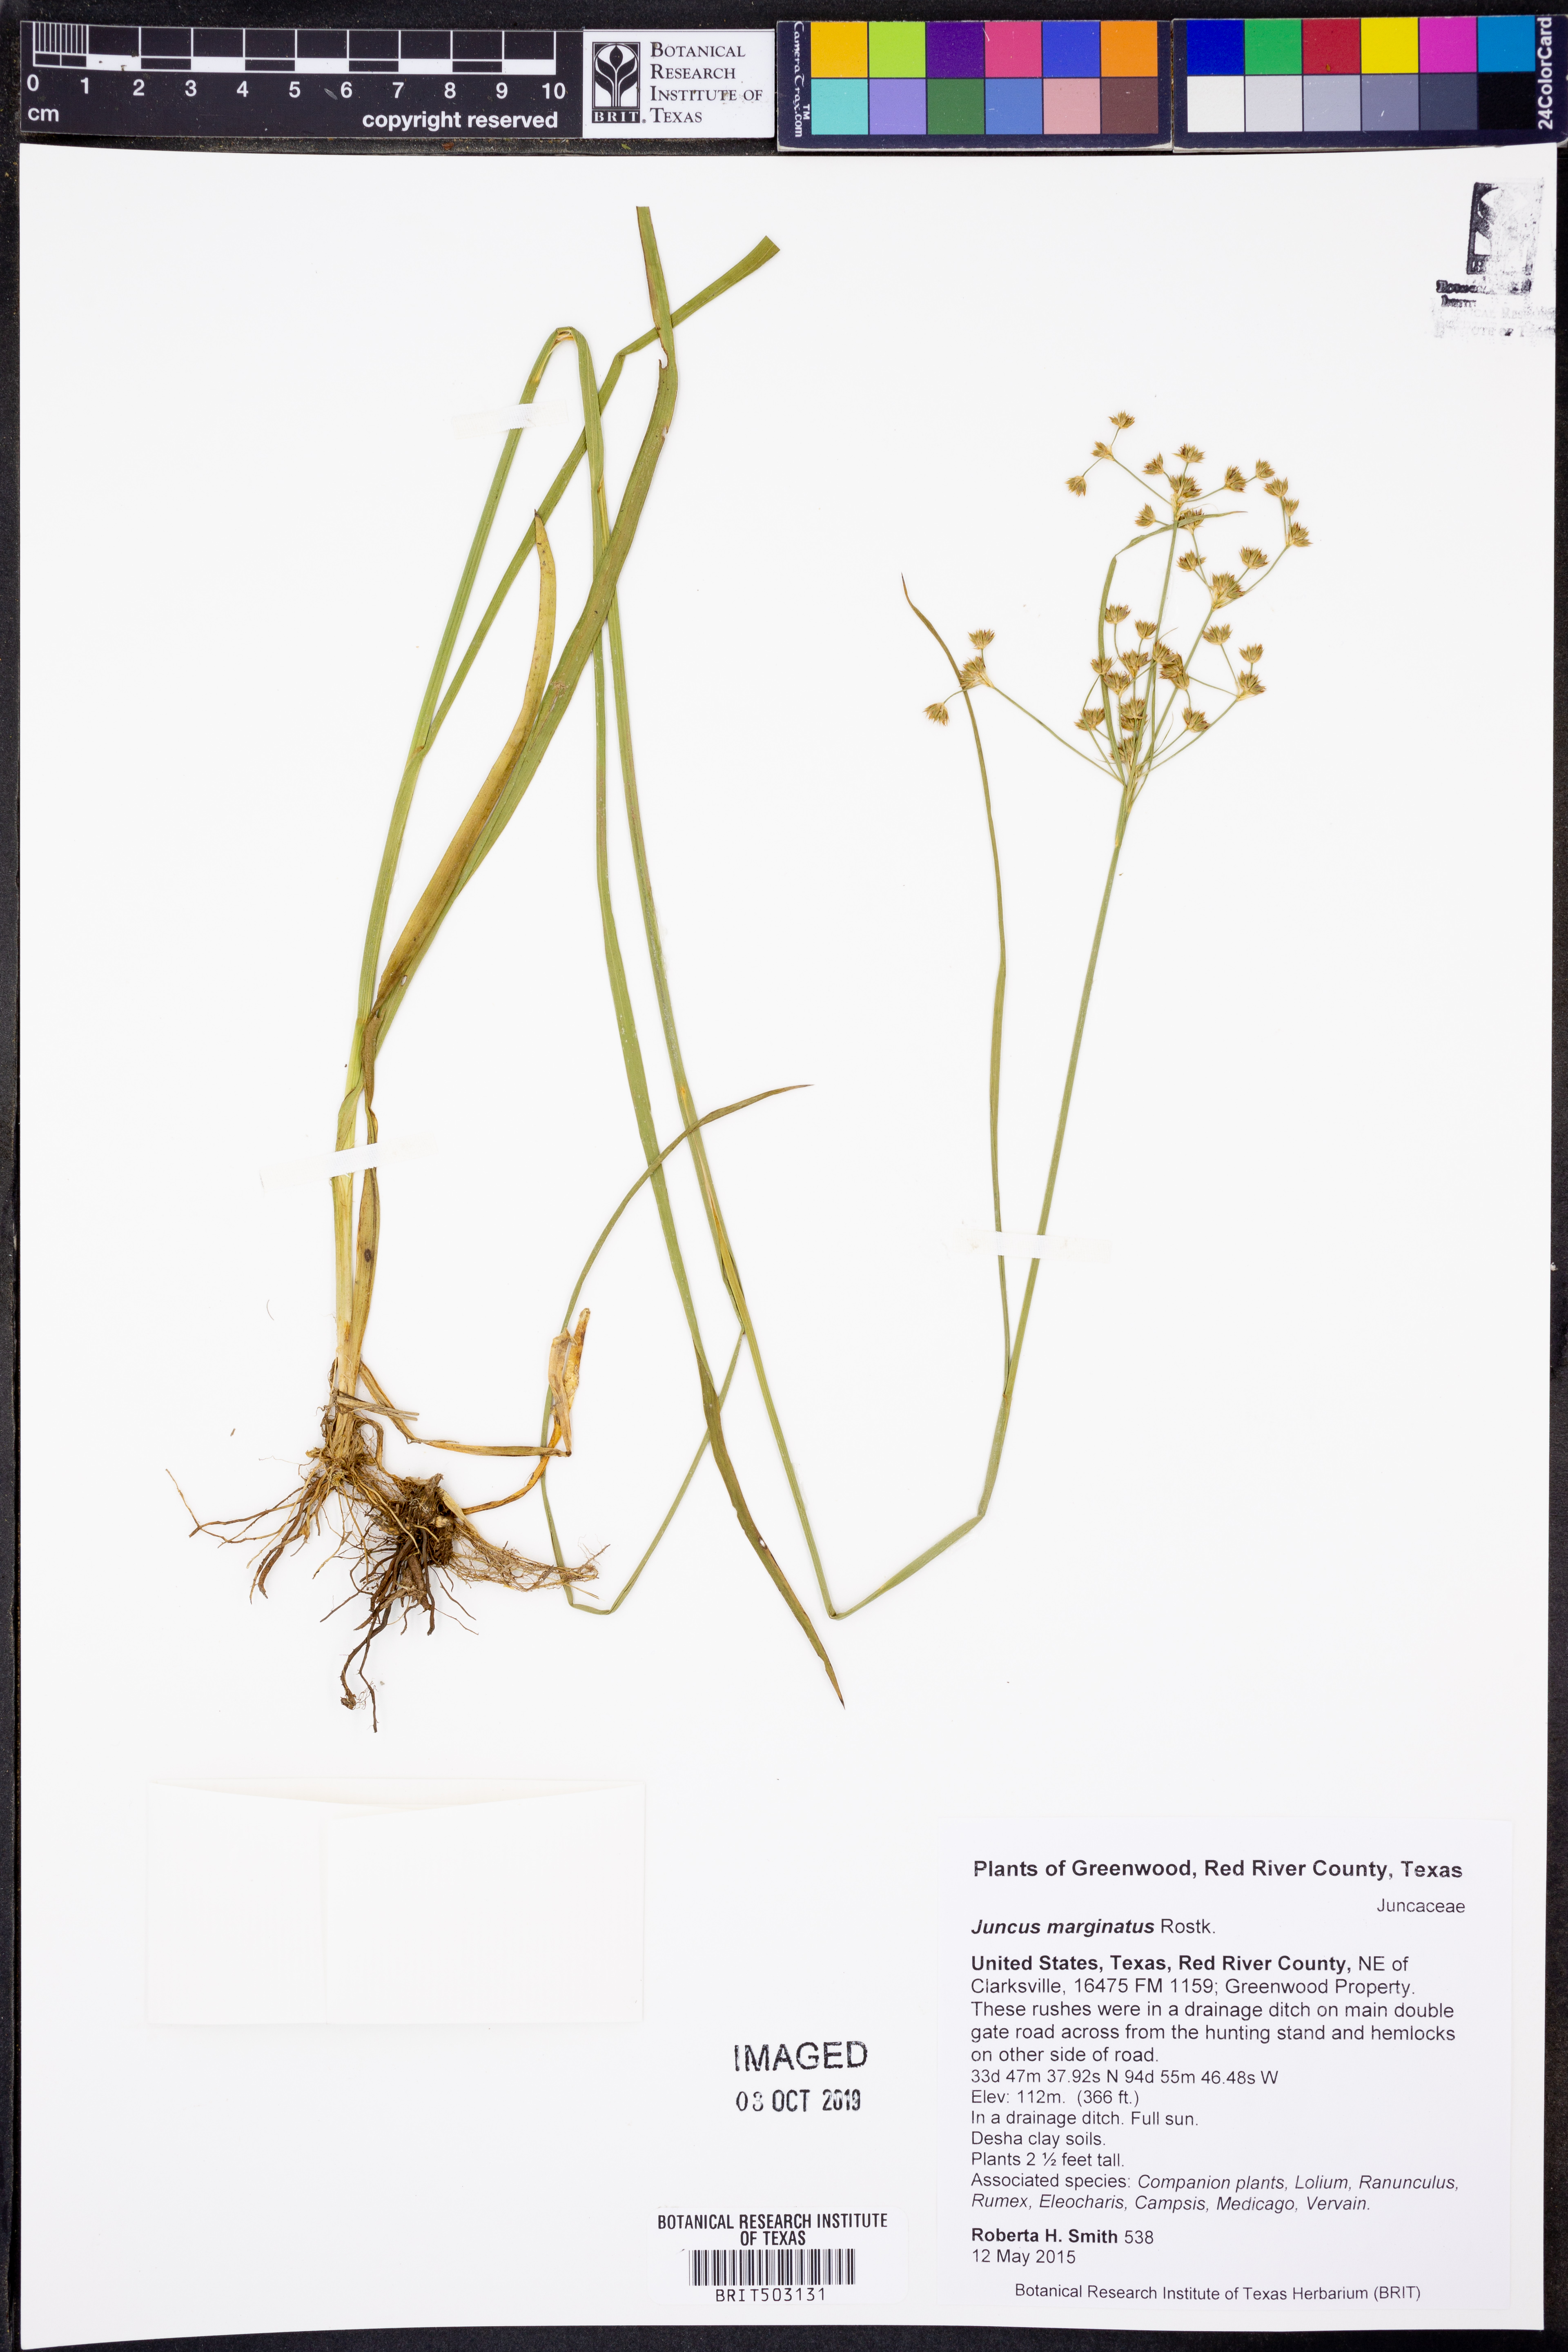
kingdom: Plantae
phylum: Tracheophyta
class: Liliopsida
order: Poales
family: Juncaceae
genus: Juncus
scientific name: Juncus marginatus
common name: Grass-leaf rush
